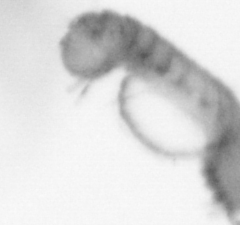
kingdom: Animalia
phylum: Annelida
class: Polychaeta
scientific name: Polychaeta
